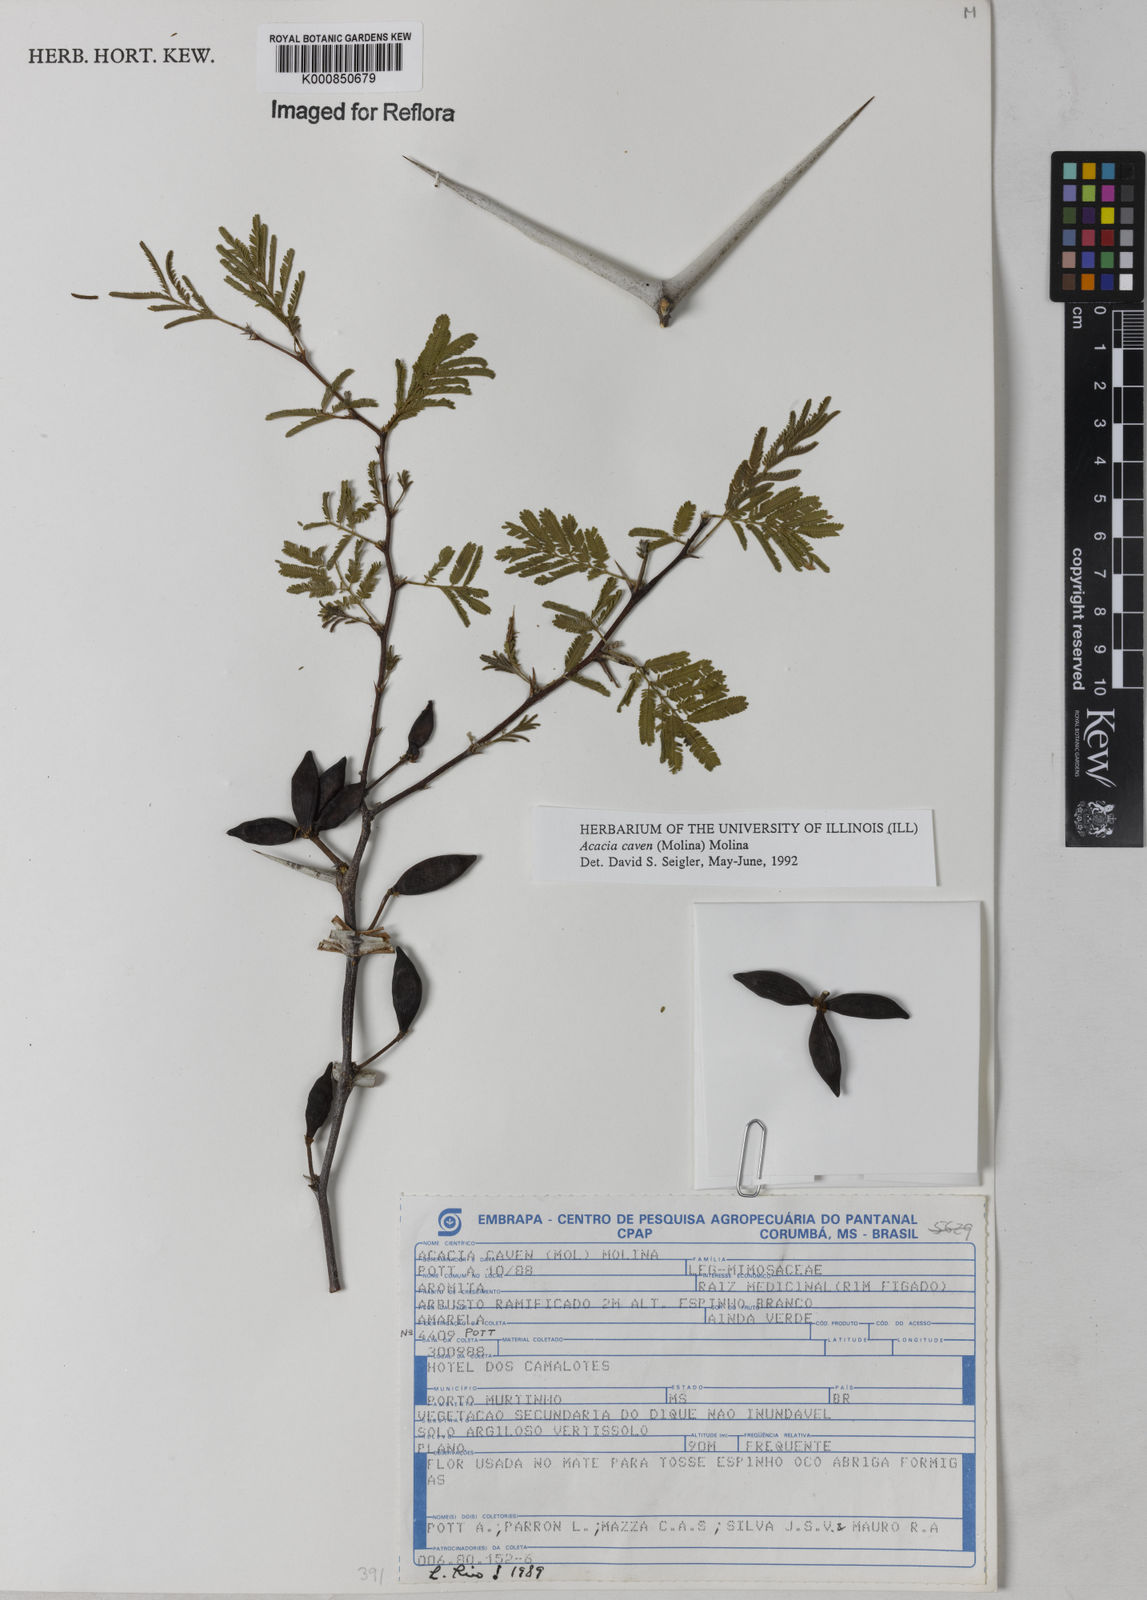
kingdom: Plantae
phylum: Tracheophyta
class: Magnoliopsida
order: Fabales
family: Fabaceae
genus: Vachellia
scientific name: Vachellia caven
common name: Roman cassie
